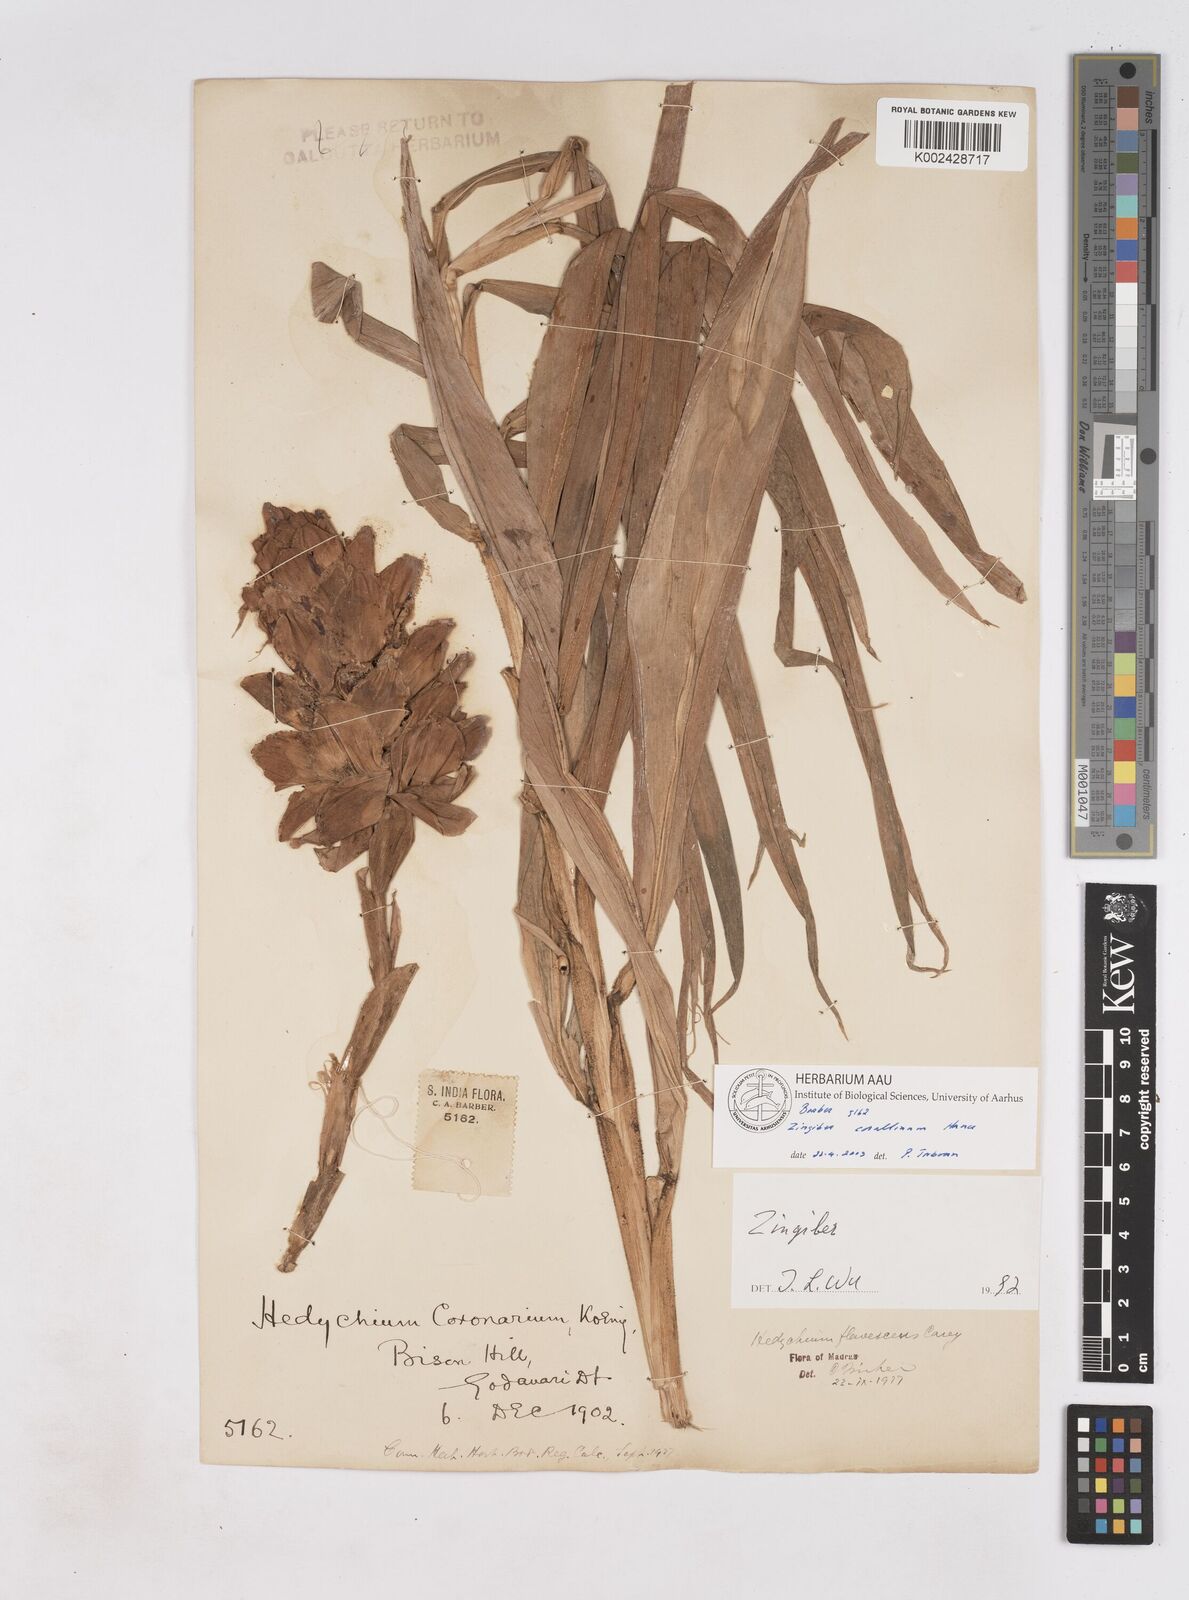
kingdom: Plantae
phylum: Tracheophyta
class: Liliopsida
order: Zingiberales
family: Zingiberaceae
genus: Zingiber
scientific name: Zingiber corallinum
